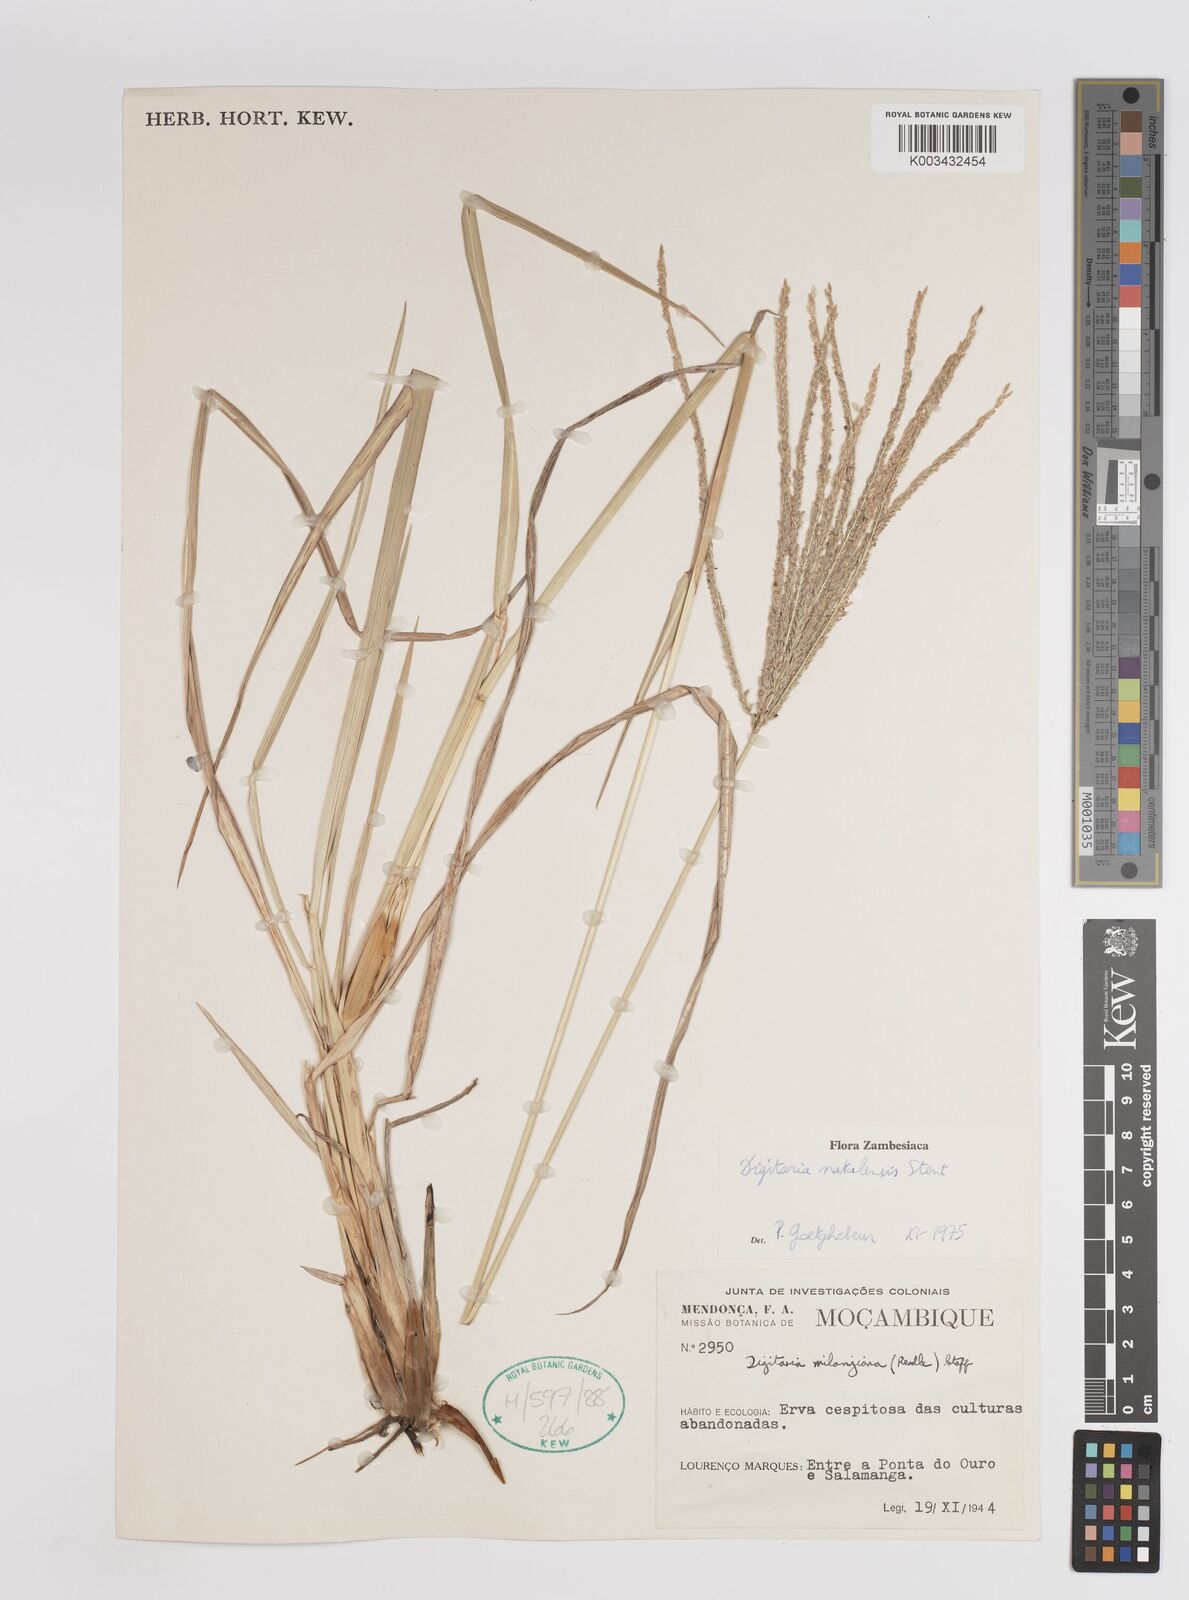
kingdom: Plantae
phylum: Tracheophyta
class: Liliopsida
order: Poales
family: Poaceae
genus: Digitaria
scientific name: Digitaria natalensis
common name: Coast finger grass
